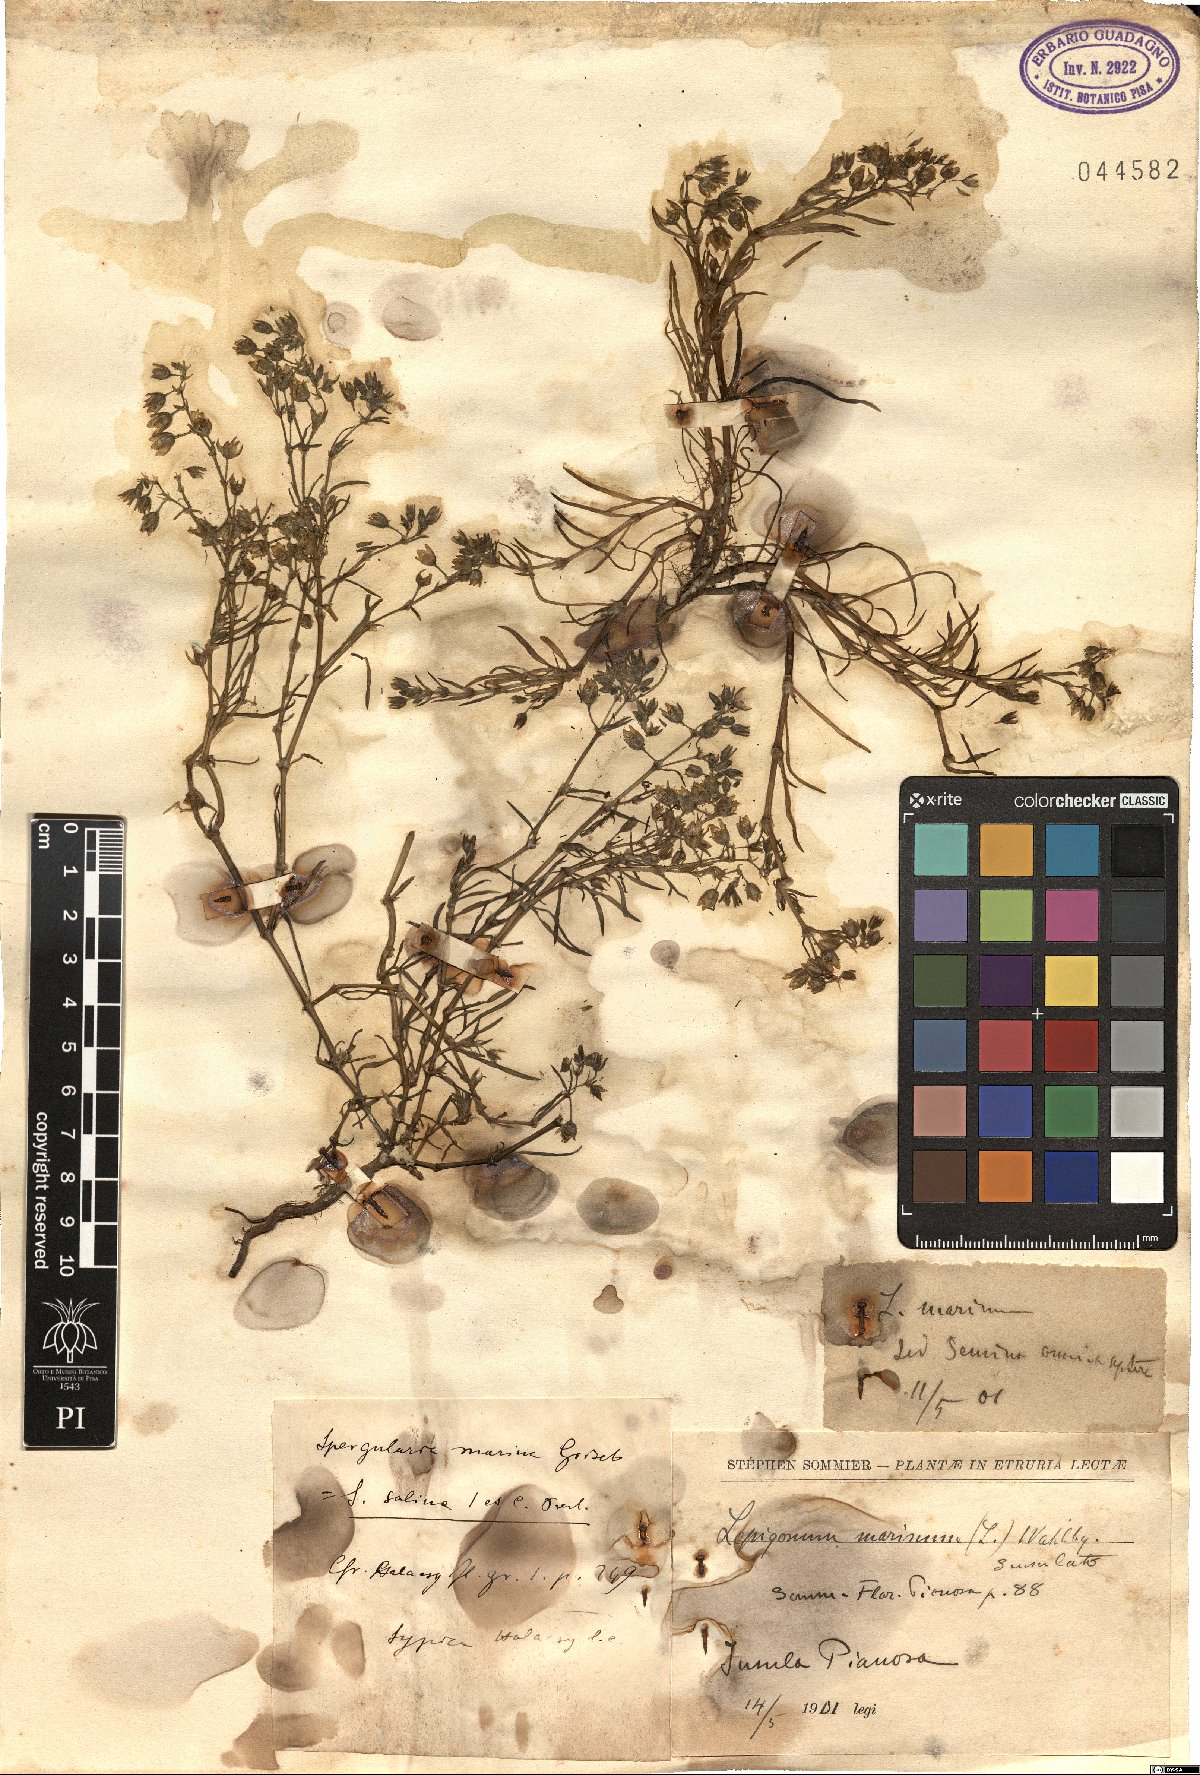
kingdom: Plantae
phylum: Tracheophyta
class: Magnoliopsida
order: Caryophyllales
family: Caryophyllaceae
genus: Spergularia
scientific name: Spergularia marina
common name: Lesser sea-spurrey
